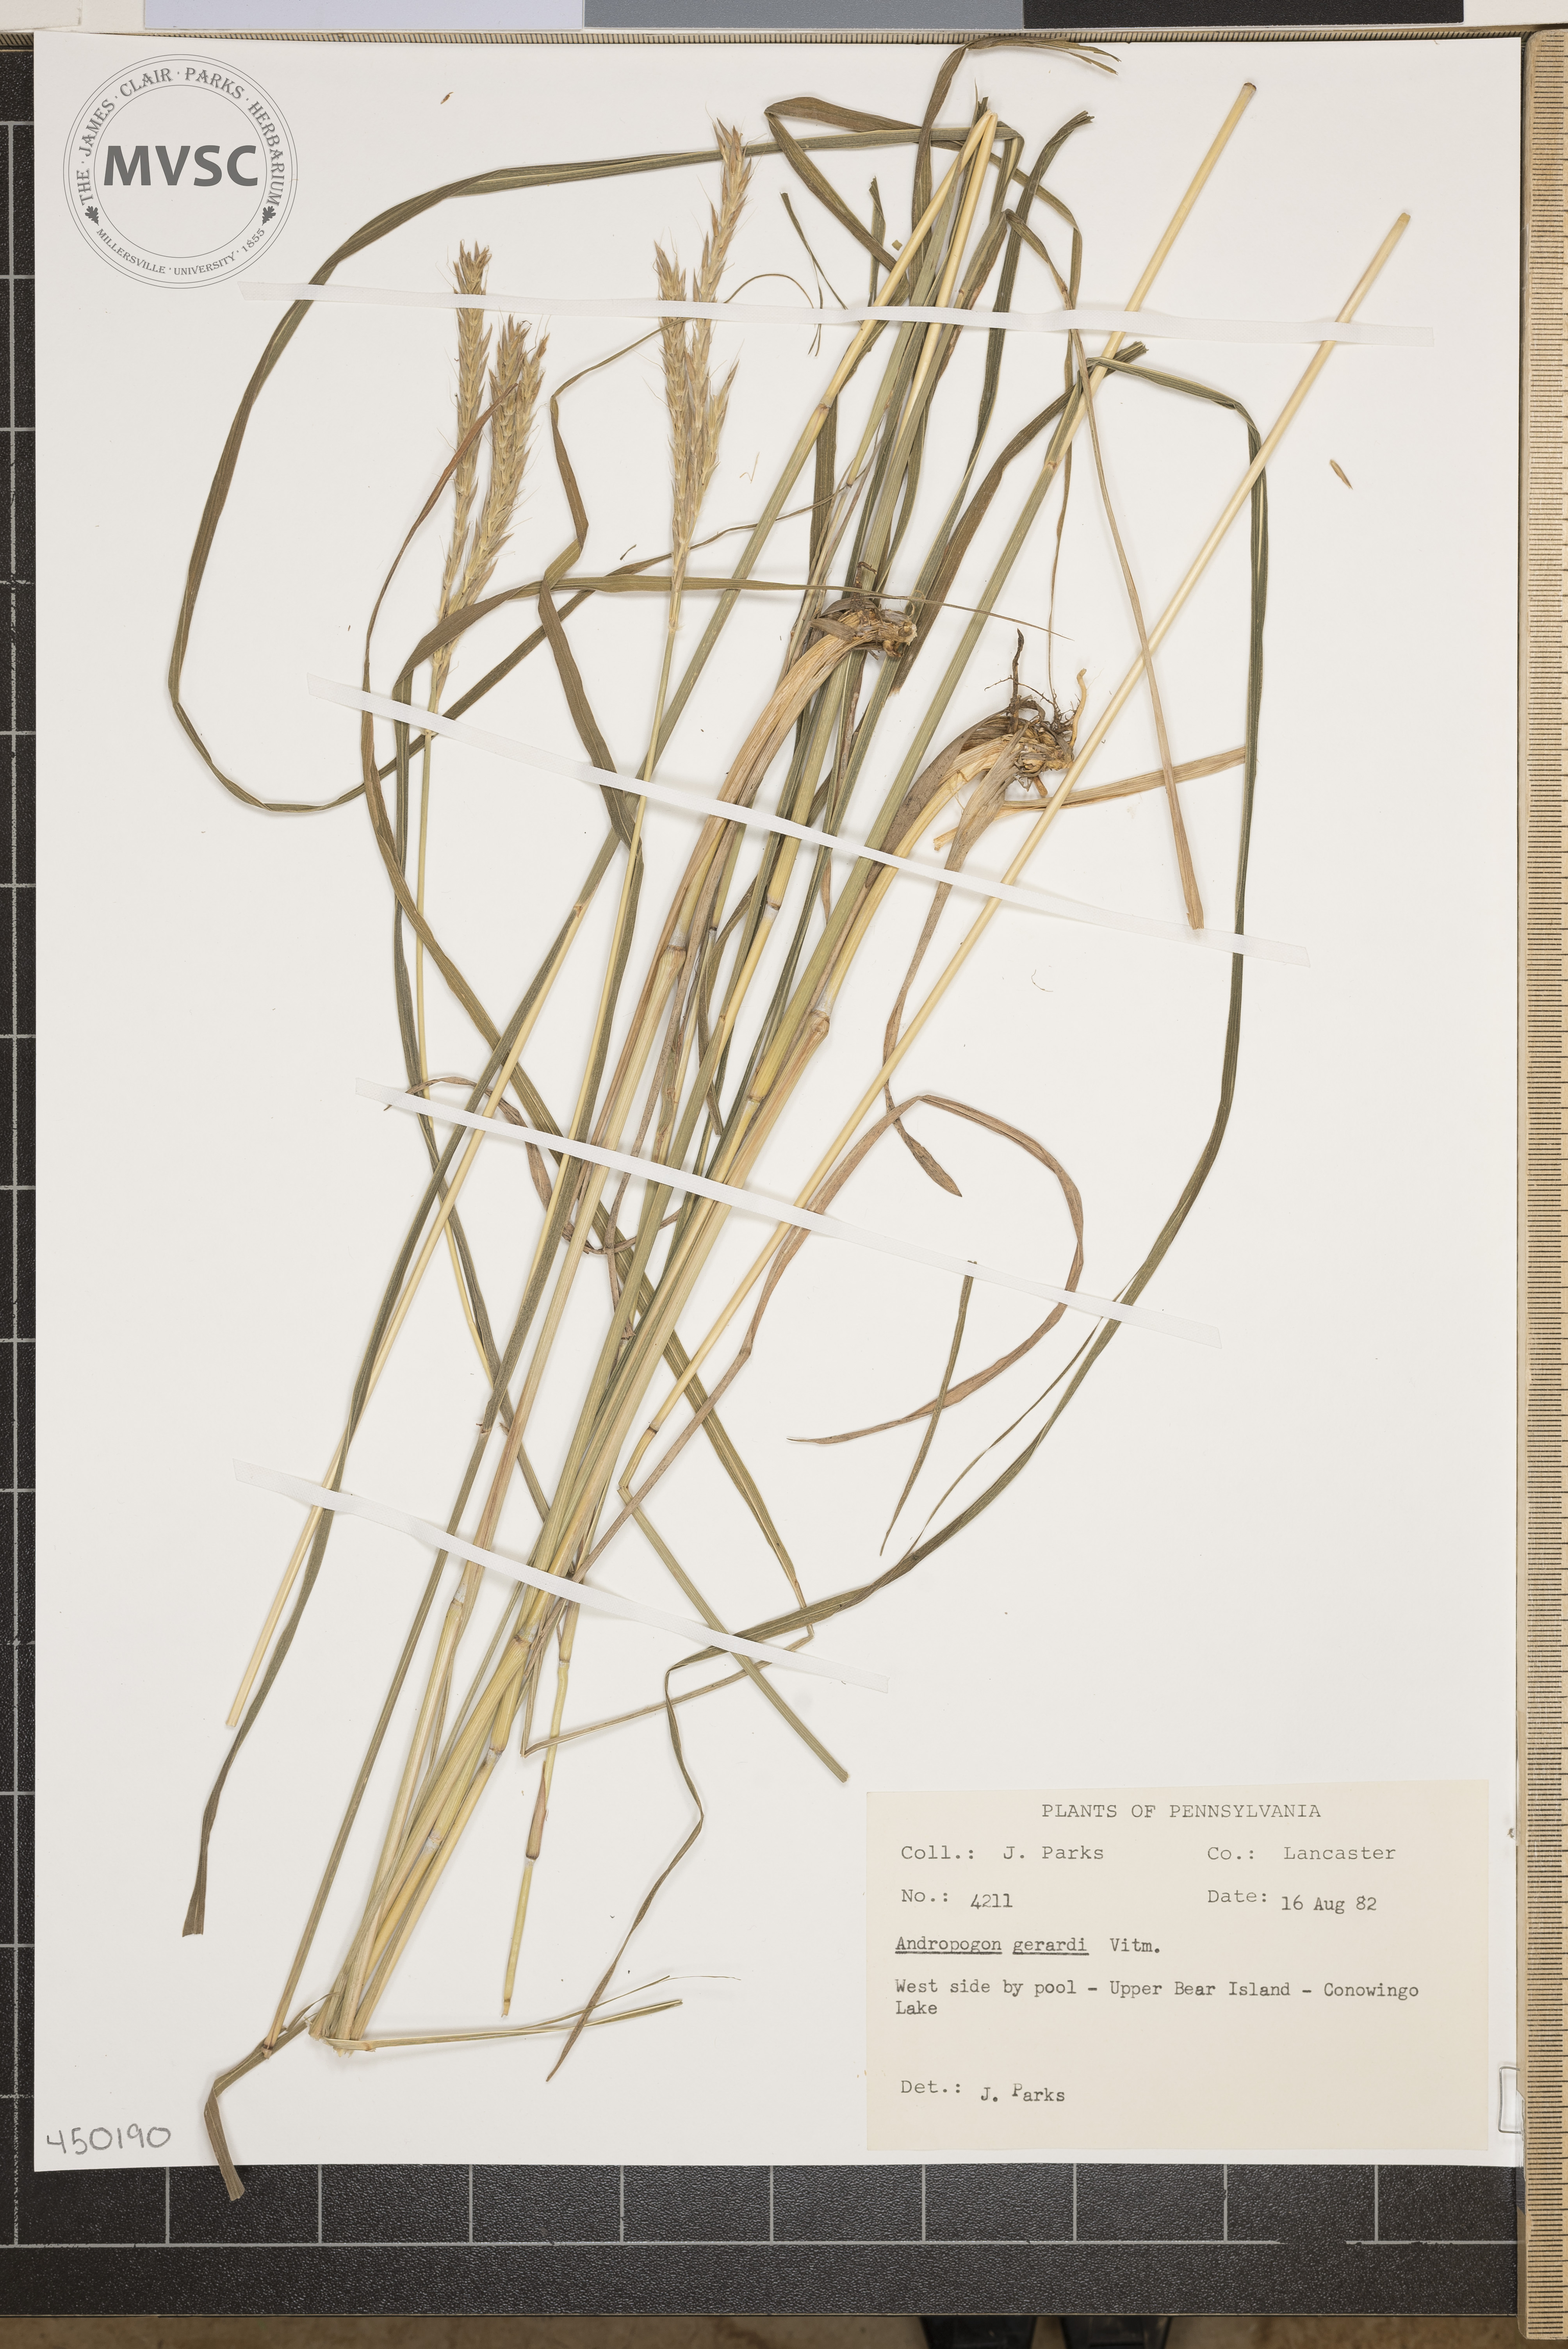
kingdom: Plantae
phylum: Tracheophyta
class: Liliopsida
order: Poales
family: Poaceae
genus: Andropogon
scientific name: Andropogon gerardi
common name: big bluestem
